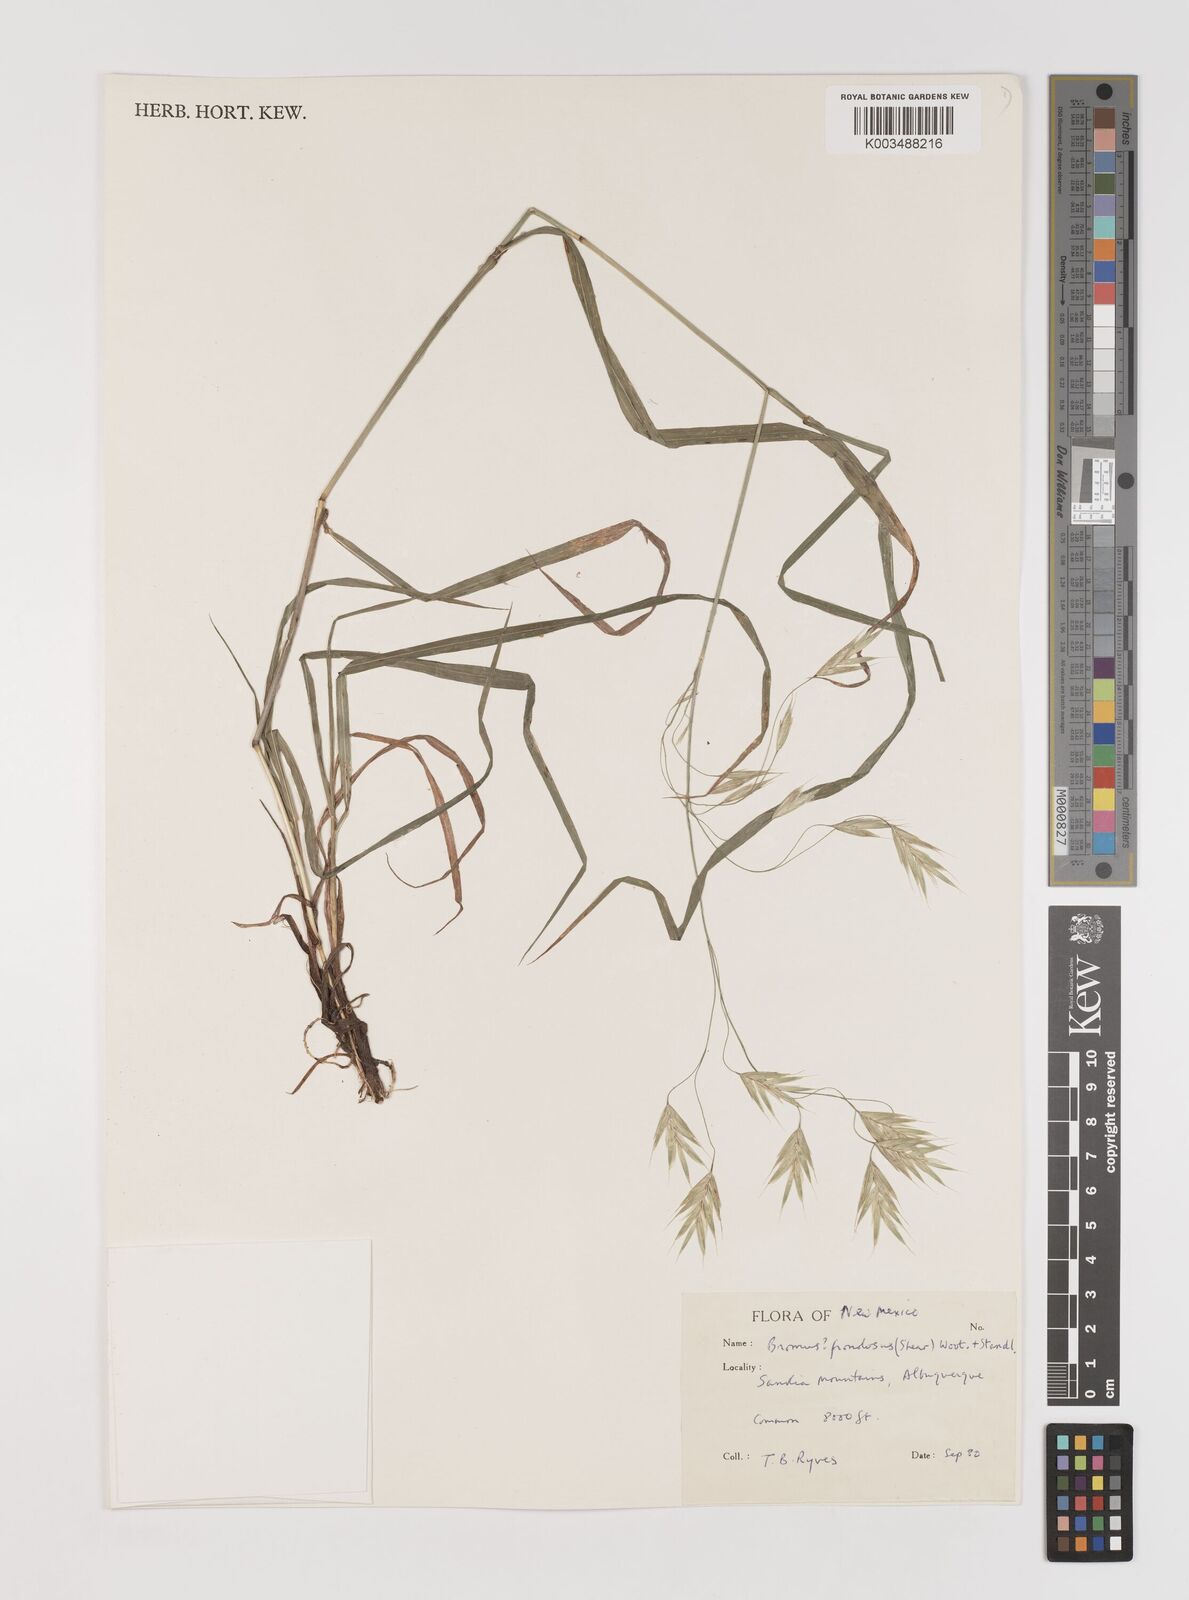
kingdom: Plantae
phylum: Tracheophyta
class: Liliopsida
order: Poales
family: Poaceae
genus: Bromus
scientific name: Bromus frondosus
